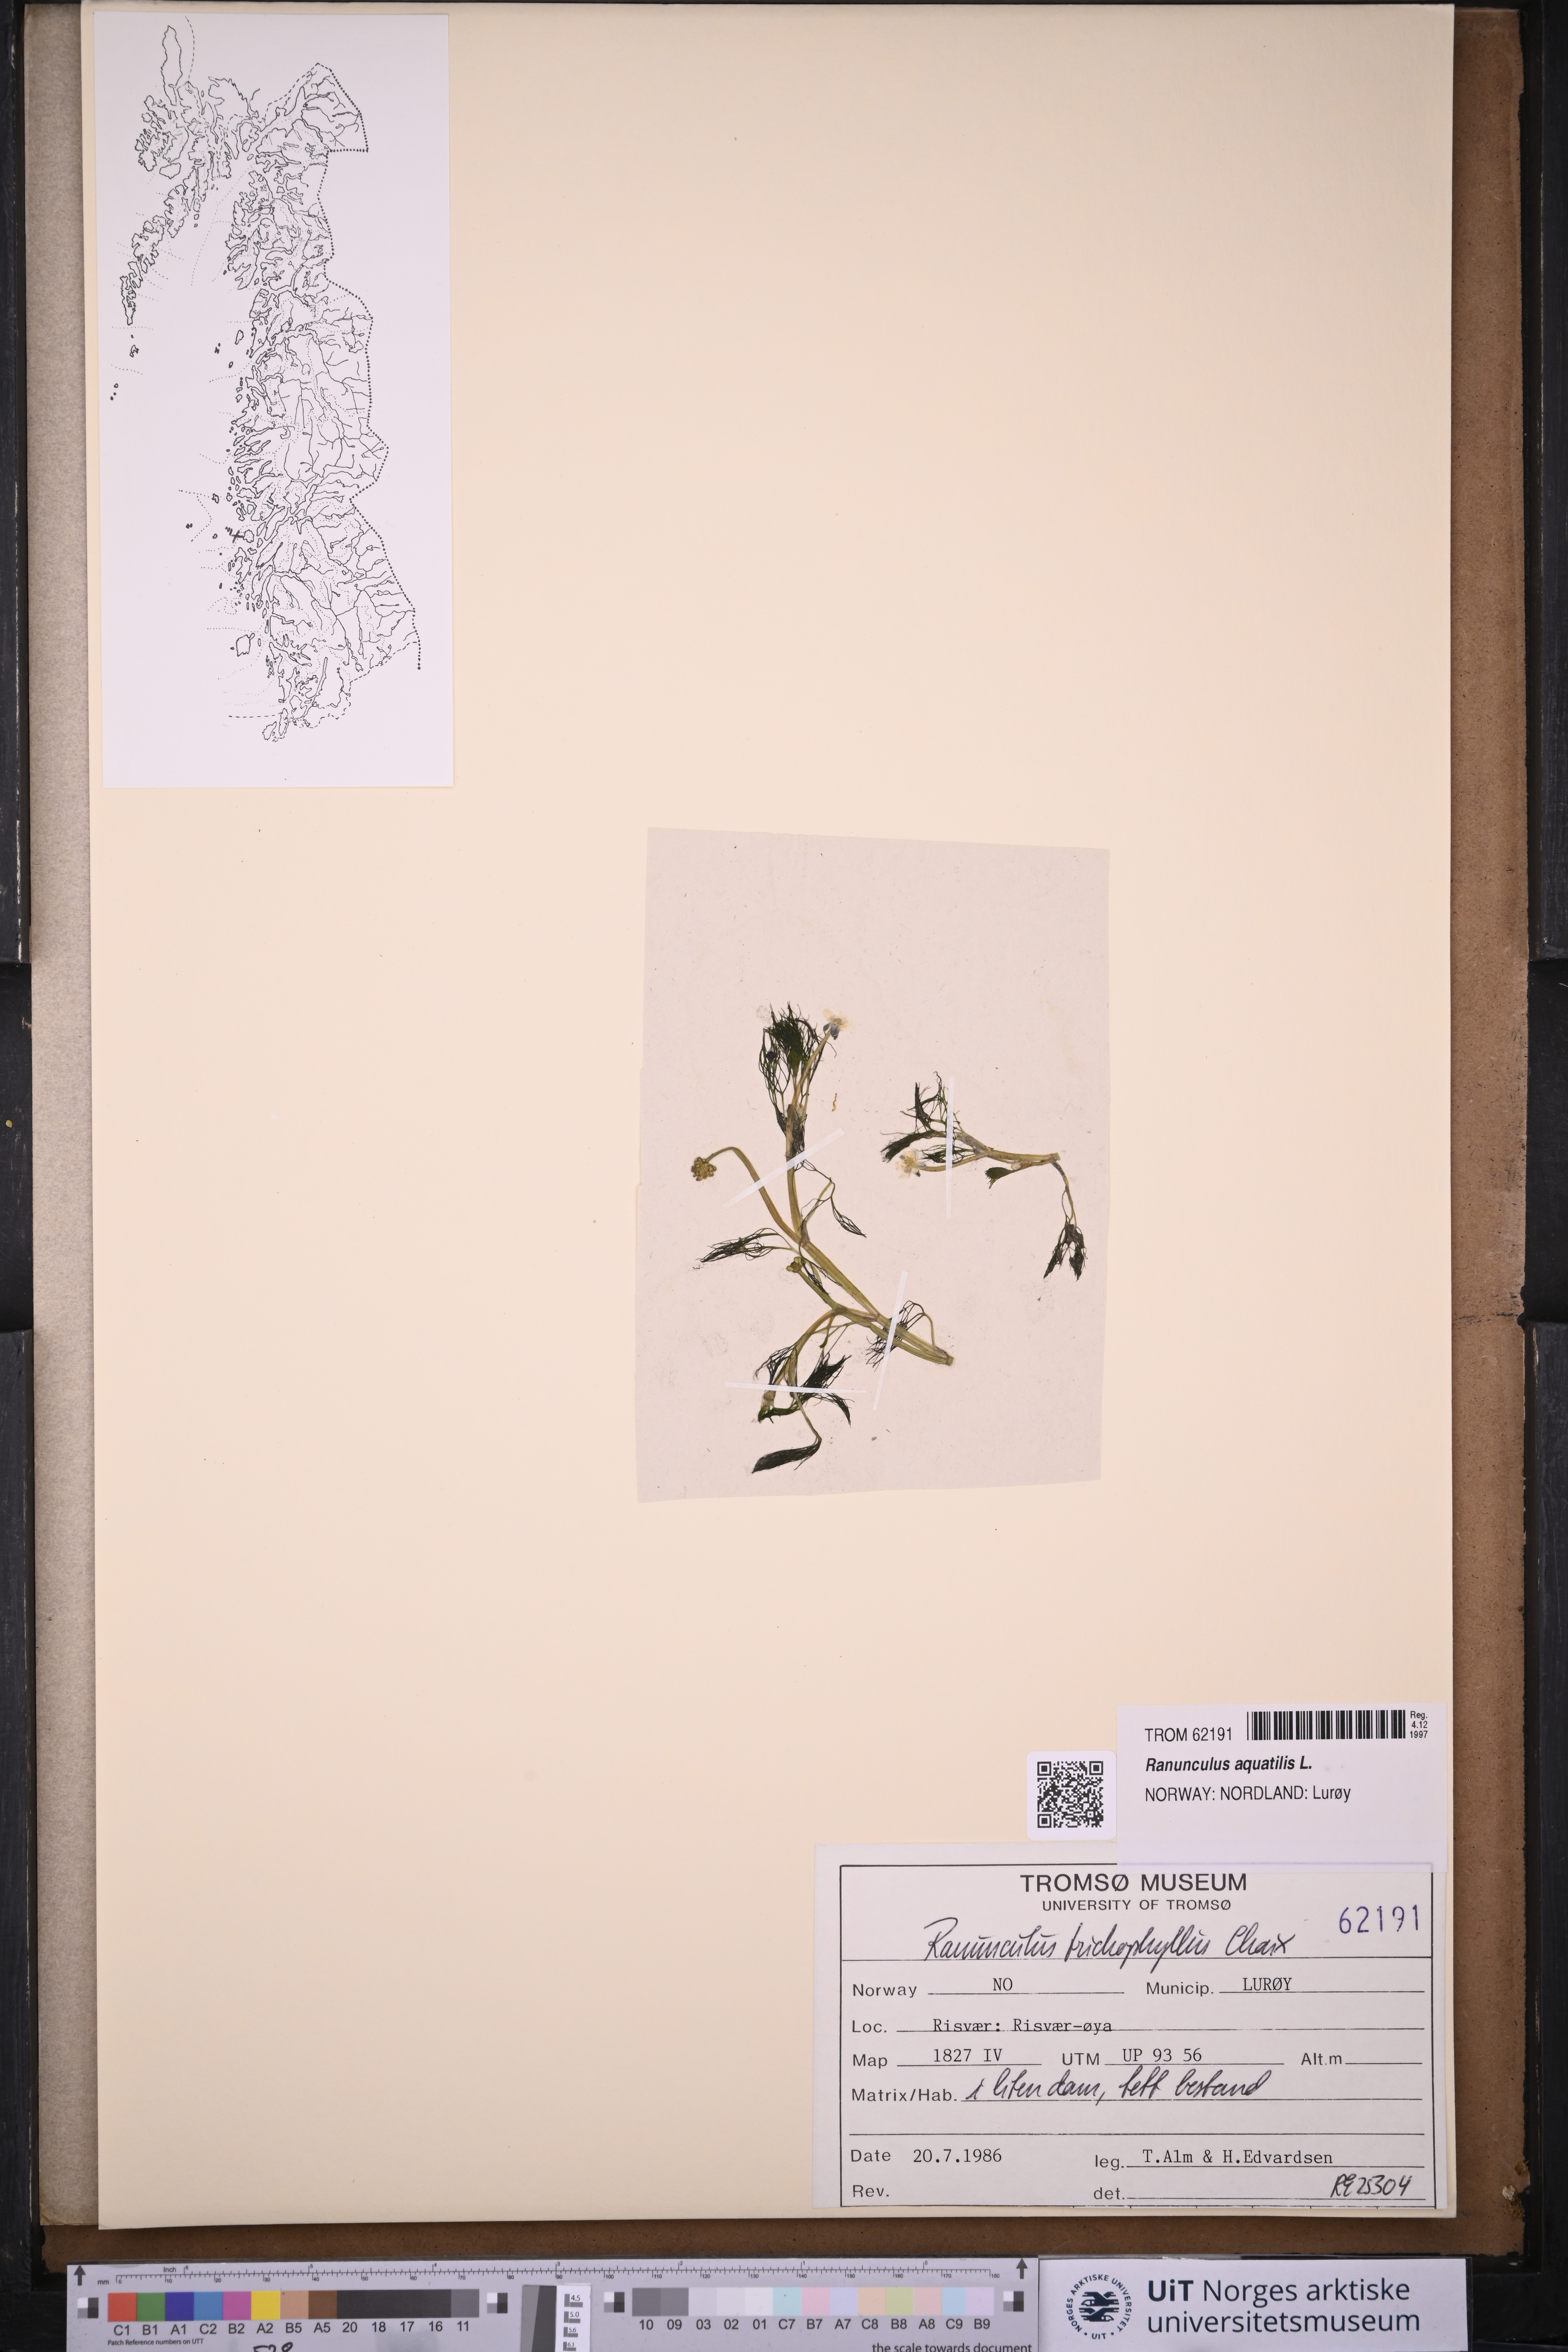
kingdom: Plantae
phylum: Tracheophyta
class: Magnoliopsida
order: Ranunculales
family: Ranunculaceae
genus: Ranunculus
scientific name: Ranunculus trichophyllus
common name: Thread-leaved water-crowfoot
